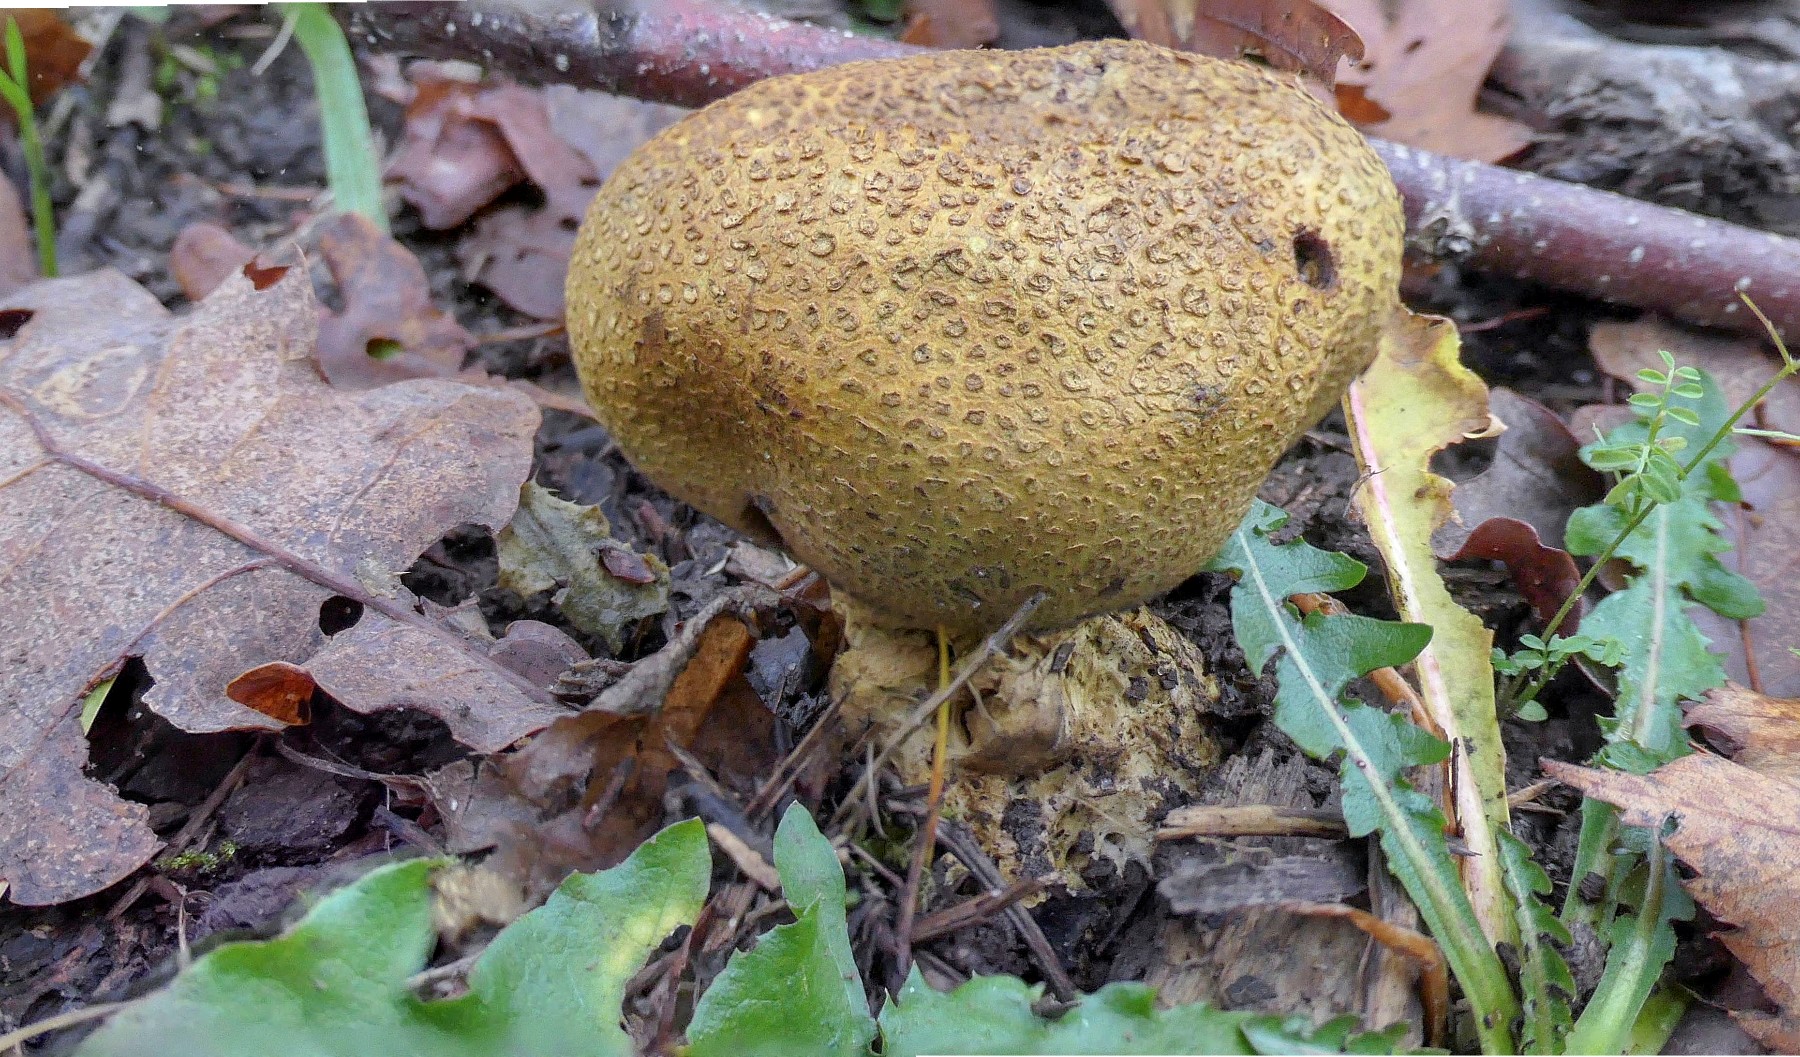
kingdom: Fungi
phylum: Basidiomycota
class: Agaricomycetes
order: Boletales
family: Sclerodermataceae
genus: Scleroderma
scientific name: Scleroderma verrucosum
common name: stilket bruskbold
